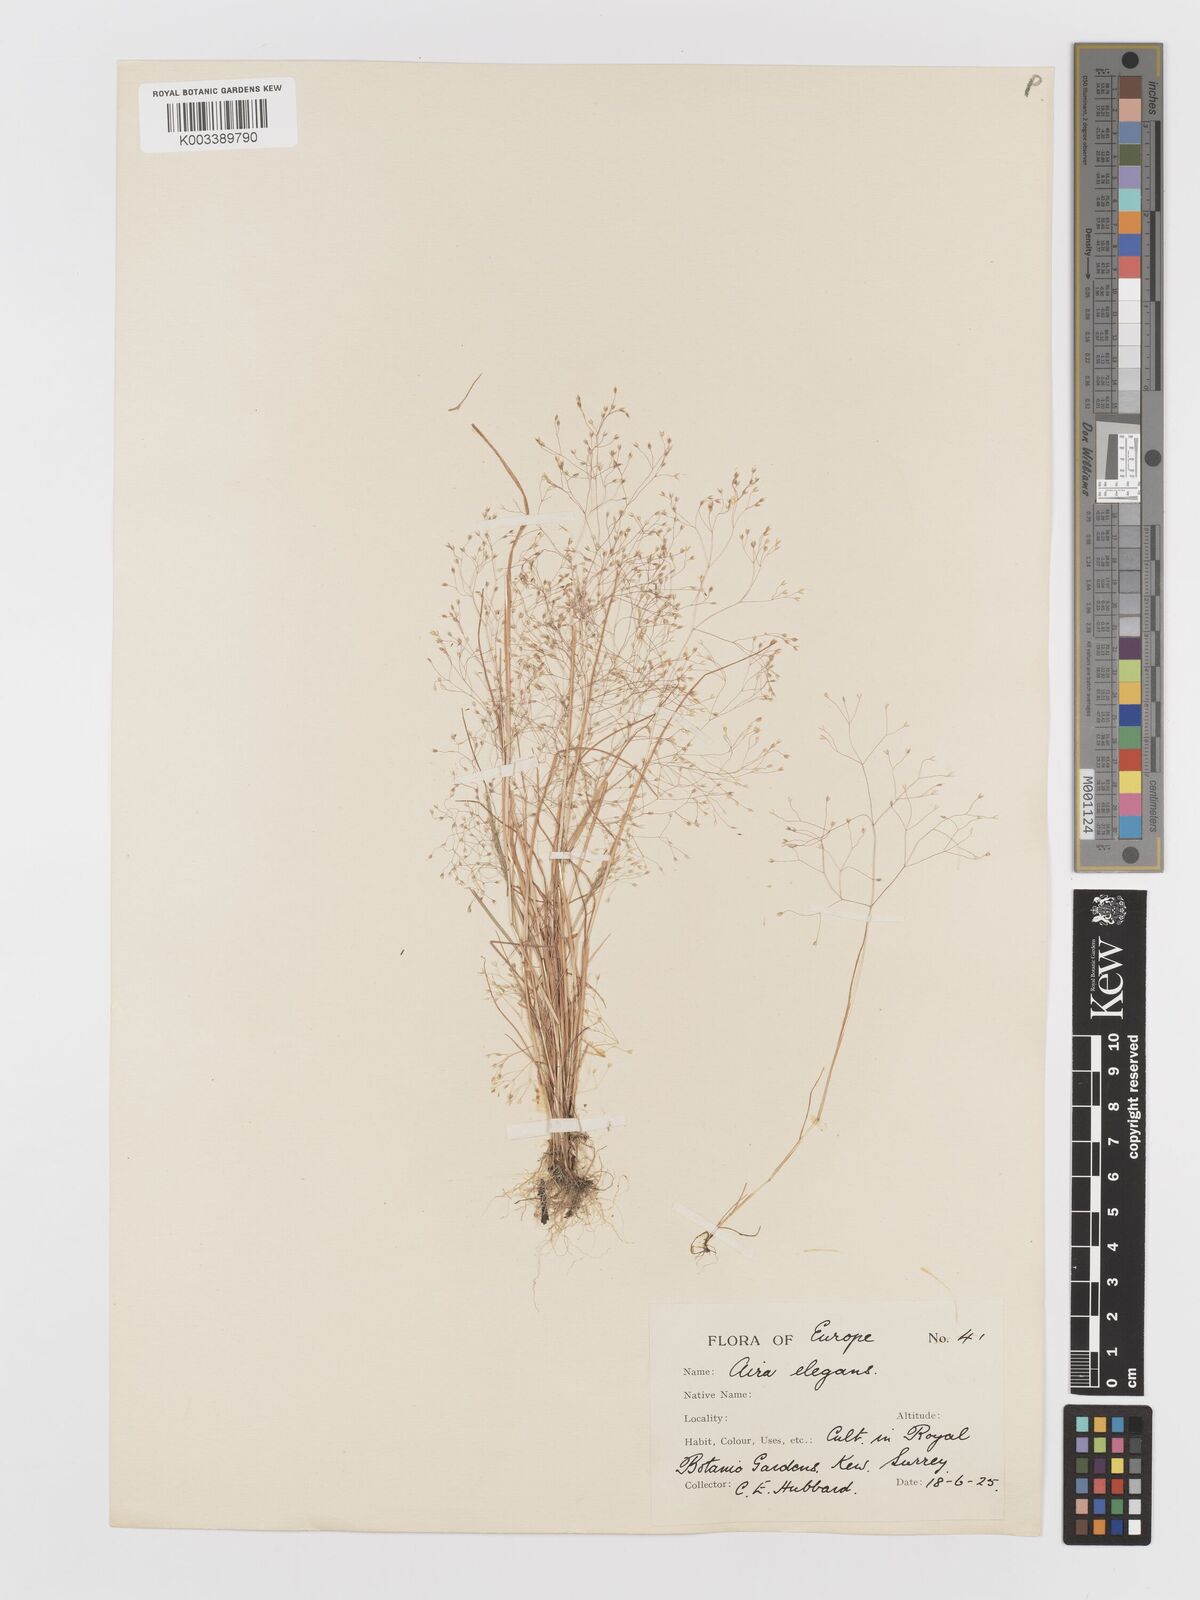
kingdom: Plantae
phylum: Tracheophyta
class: Liliopsida
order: Poales
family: Poaceae
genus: Aira
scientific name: Aira elegans
